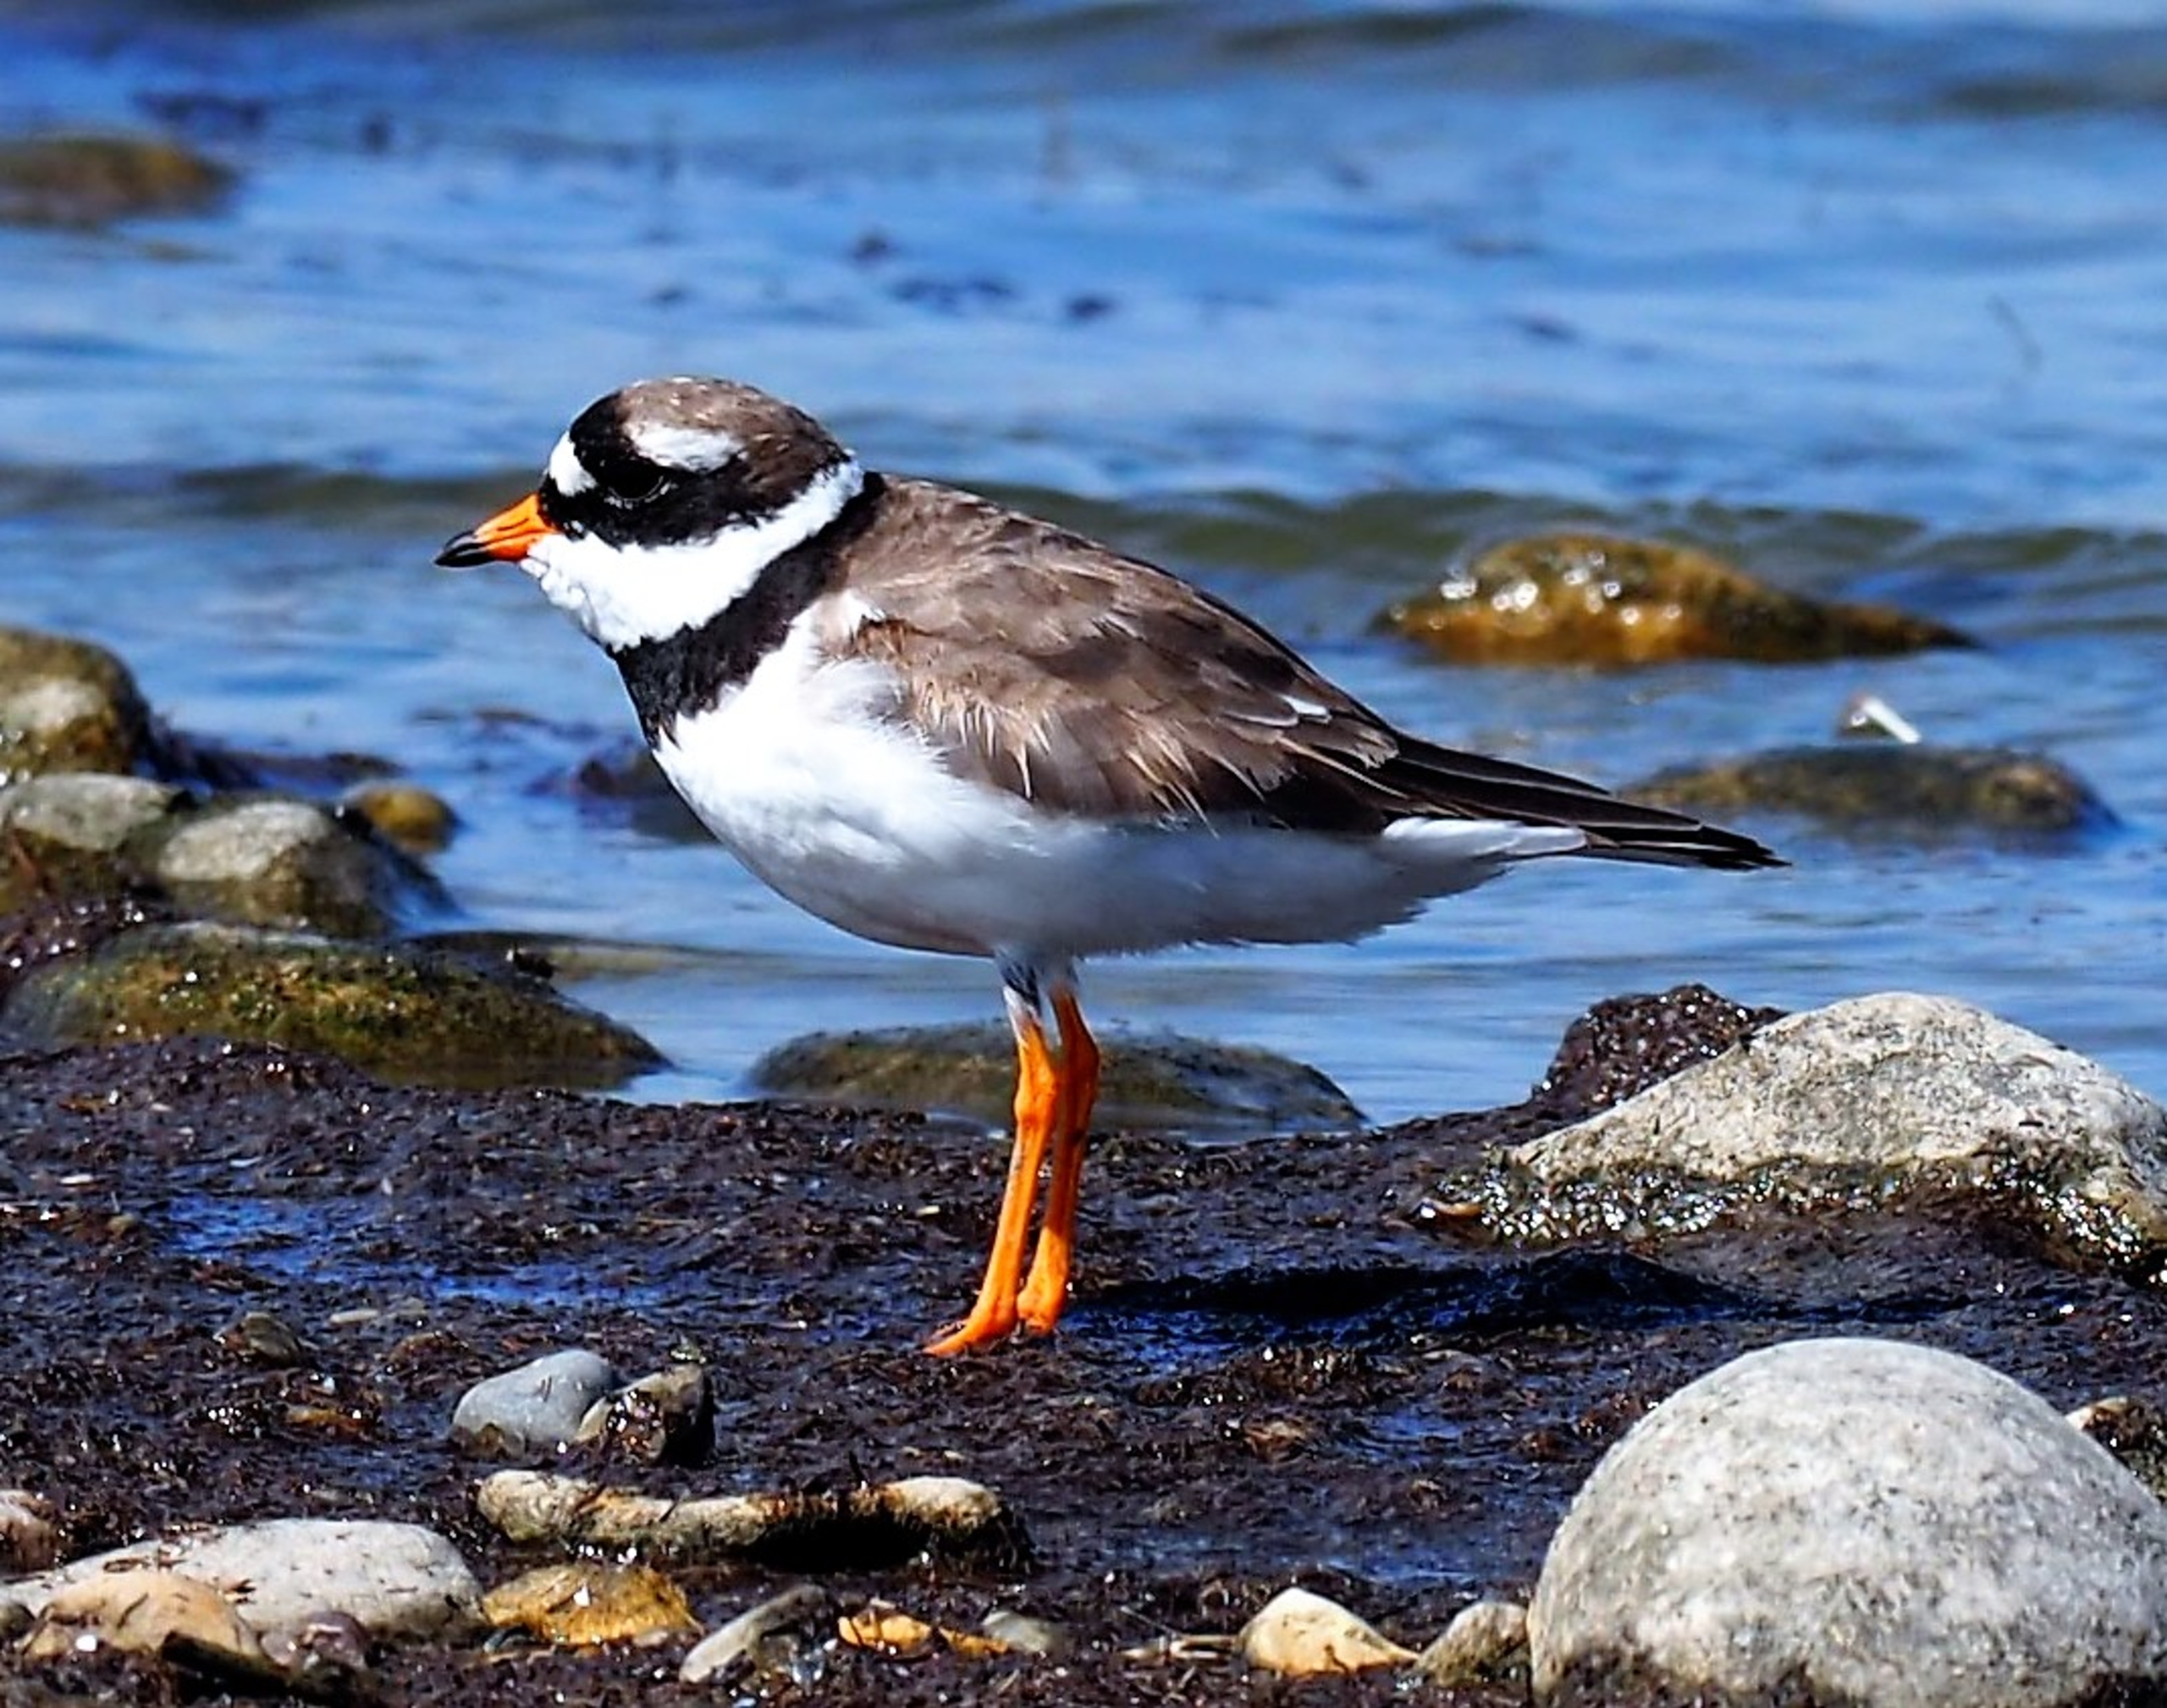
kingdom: Animalia
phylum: Chordata
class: Aves
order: Charadriiformes
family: Charadriidae
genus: Charadrius
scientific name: Charadrius hiaticula
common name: Stor præstekrave
